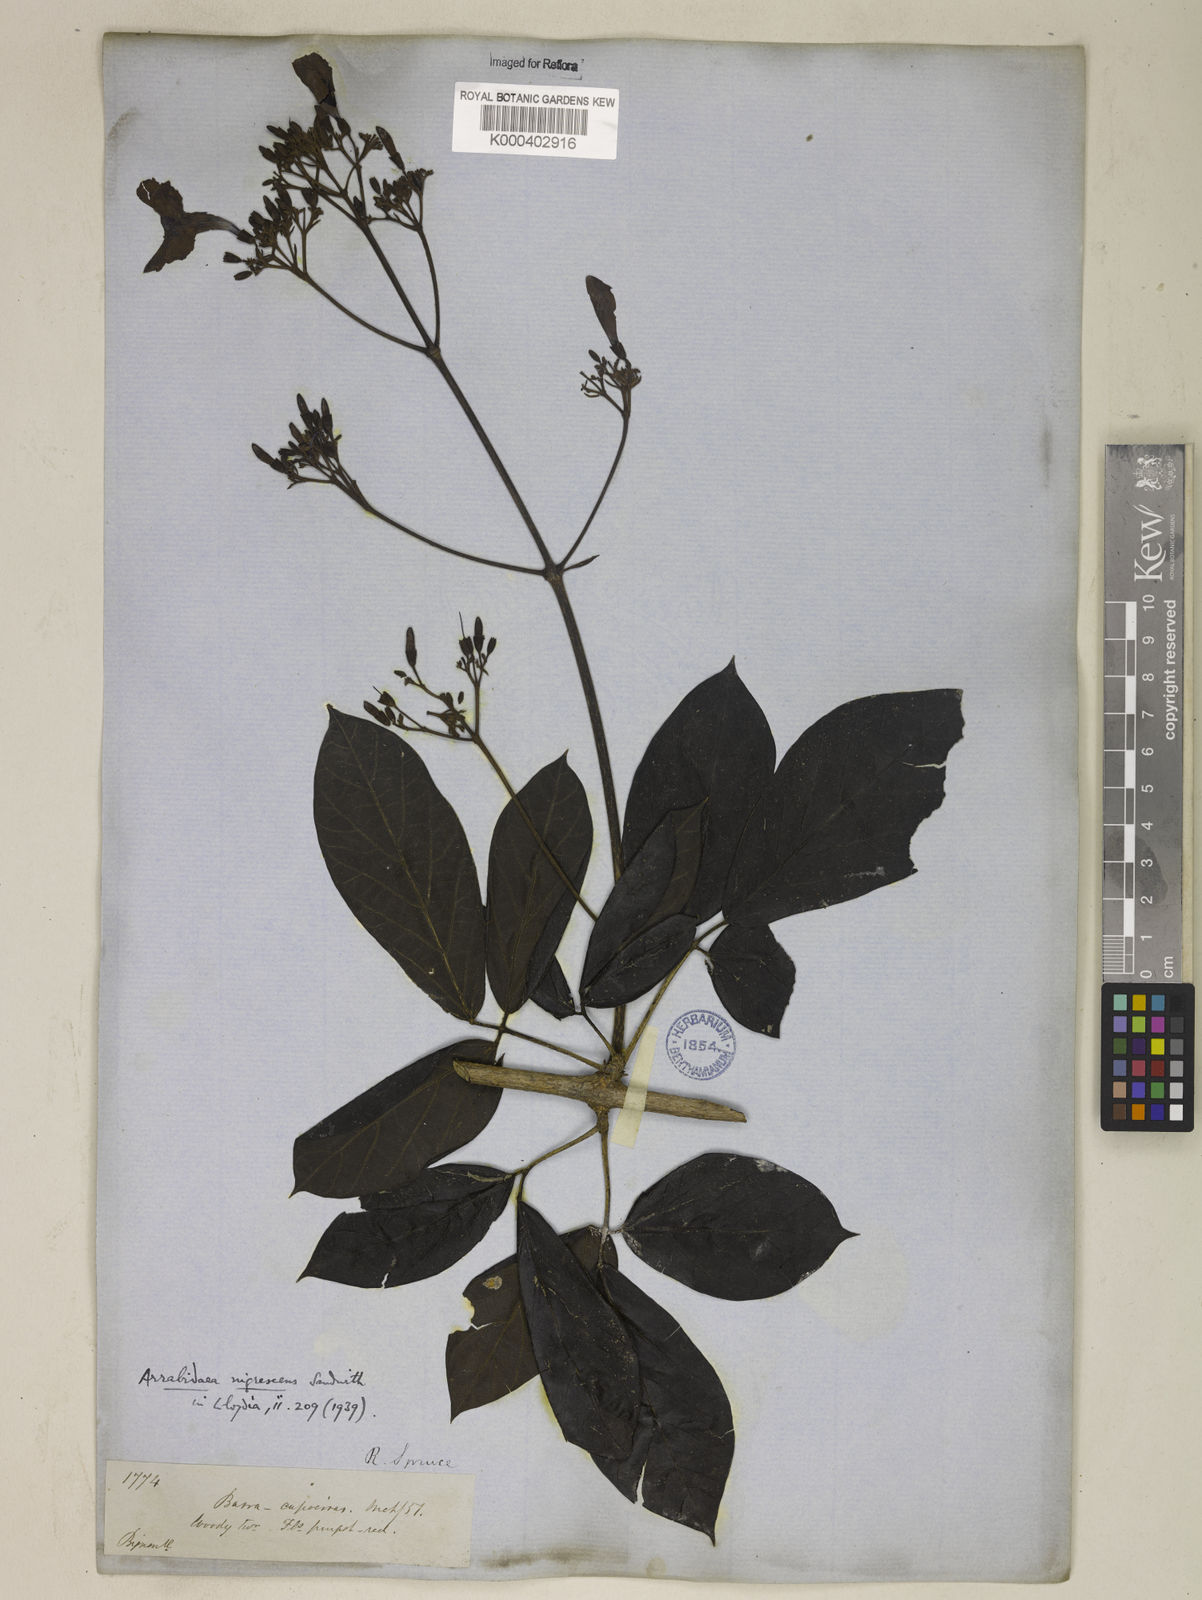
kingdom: Plantae
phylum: Tracheophyta
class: Magnoliopsida
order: Lamiales
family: Bignoniaceae
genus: Fridericia
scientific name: Fridericia nigrescens
